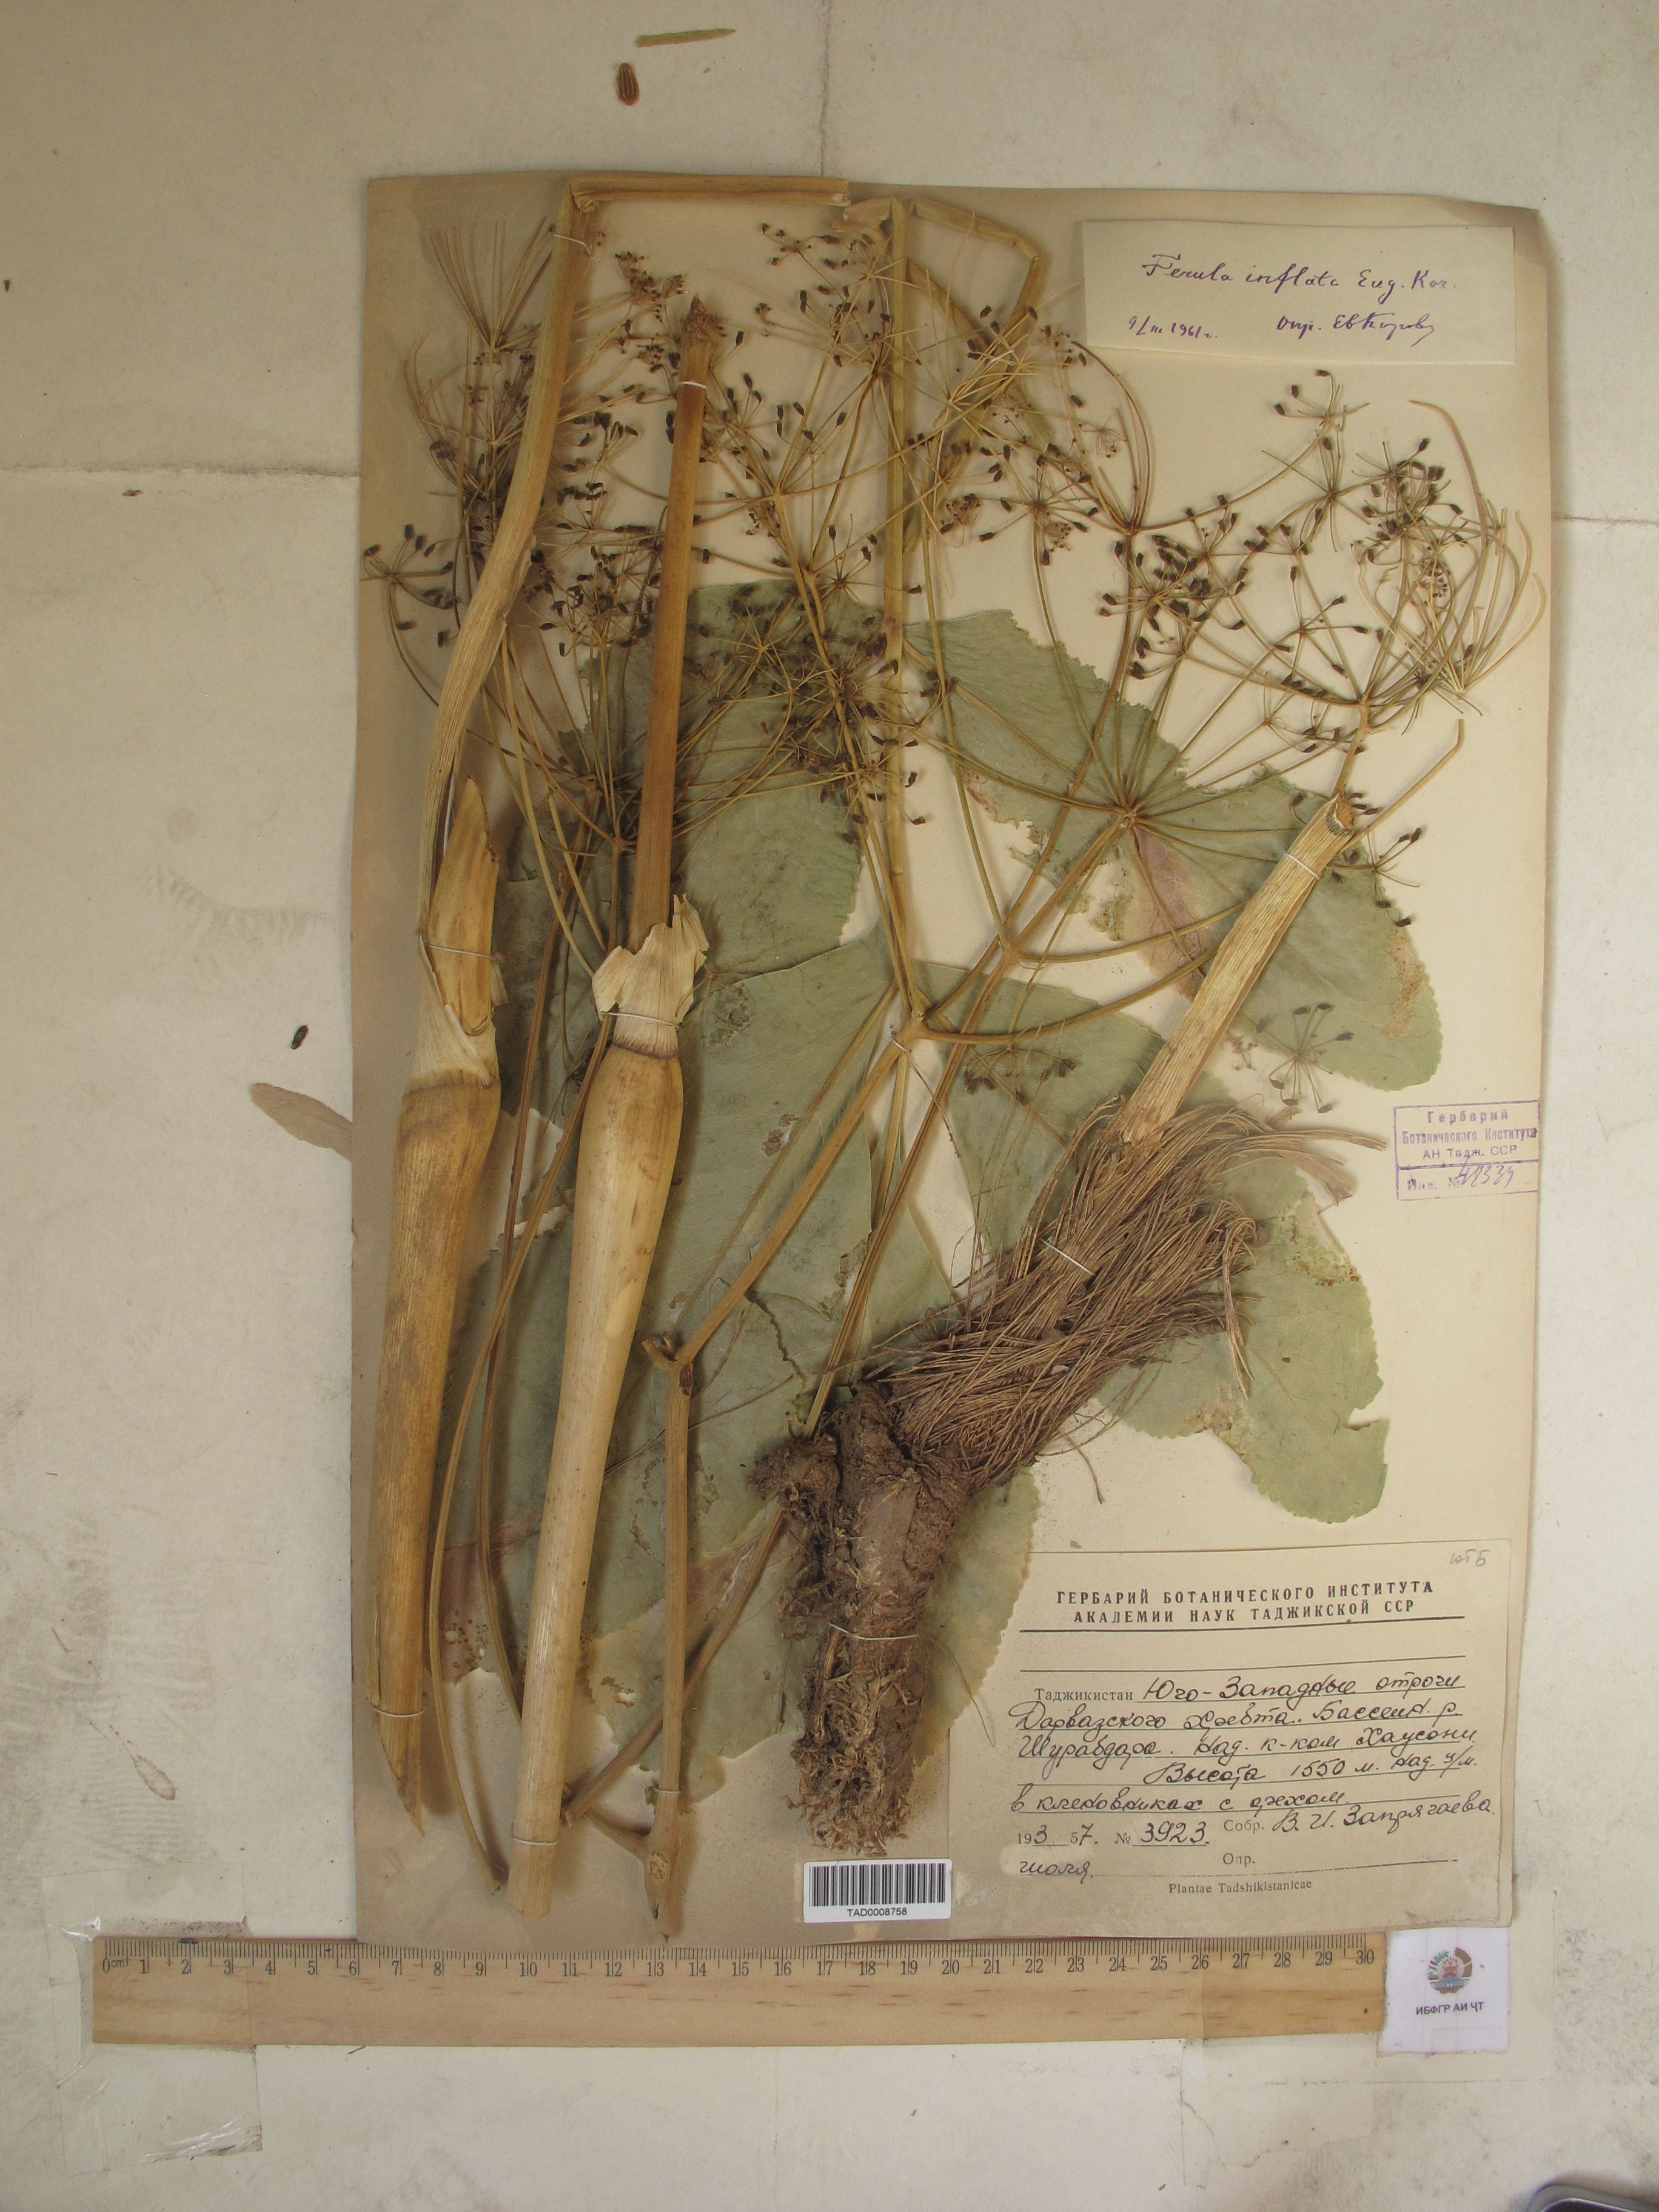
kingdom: Plantae
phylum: Tracheophyta
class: Magnoliopsida
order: Apiales
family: Apiaceae
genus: Ferula
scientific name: Ferula gigantea
